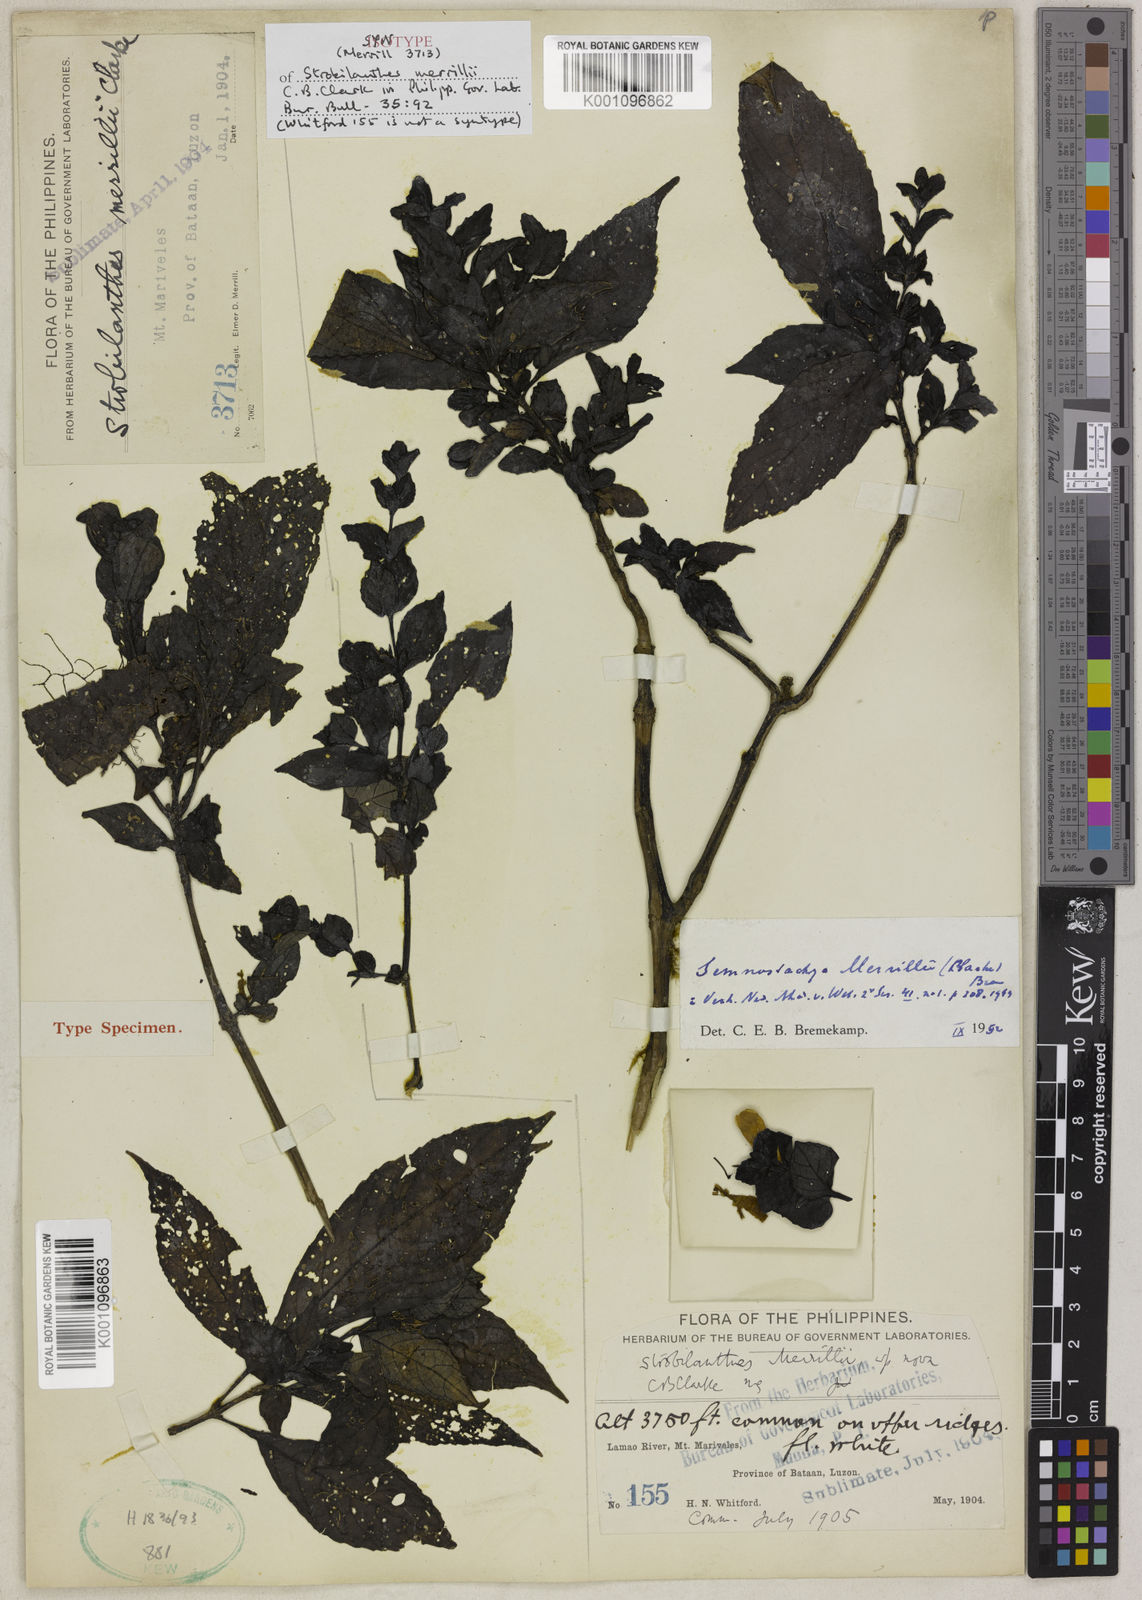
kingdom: Plantae
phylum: Tracheophyta
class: Magnoliopsida
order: Lamiales
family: Acanthaceae
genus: Strobilanthes
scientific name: Strobilanthes merrillii
